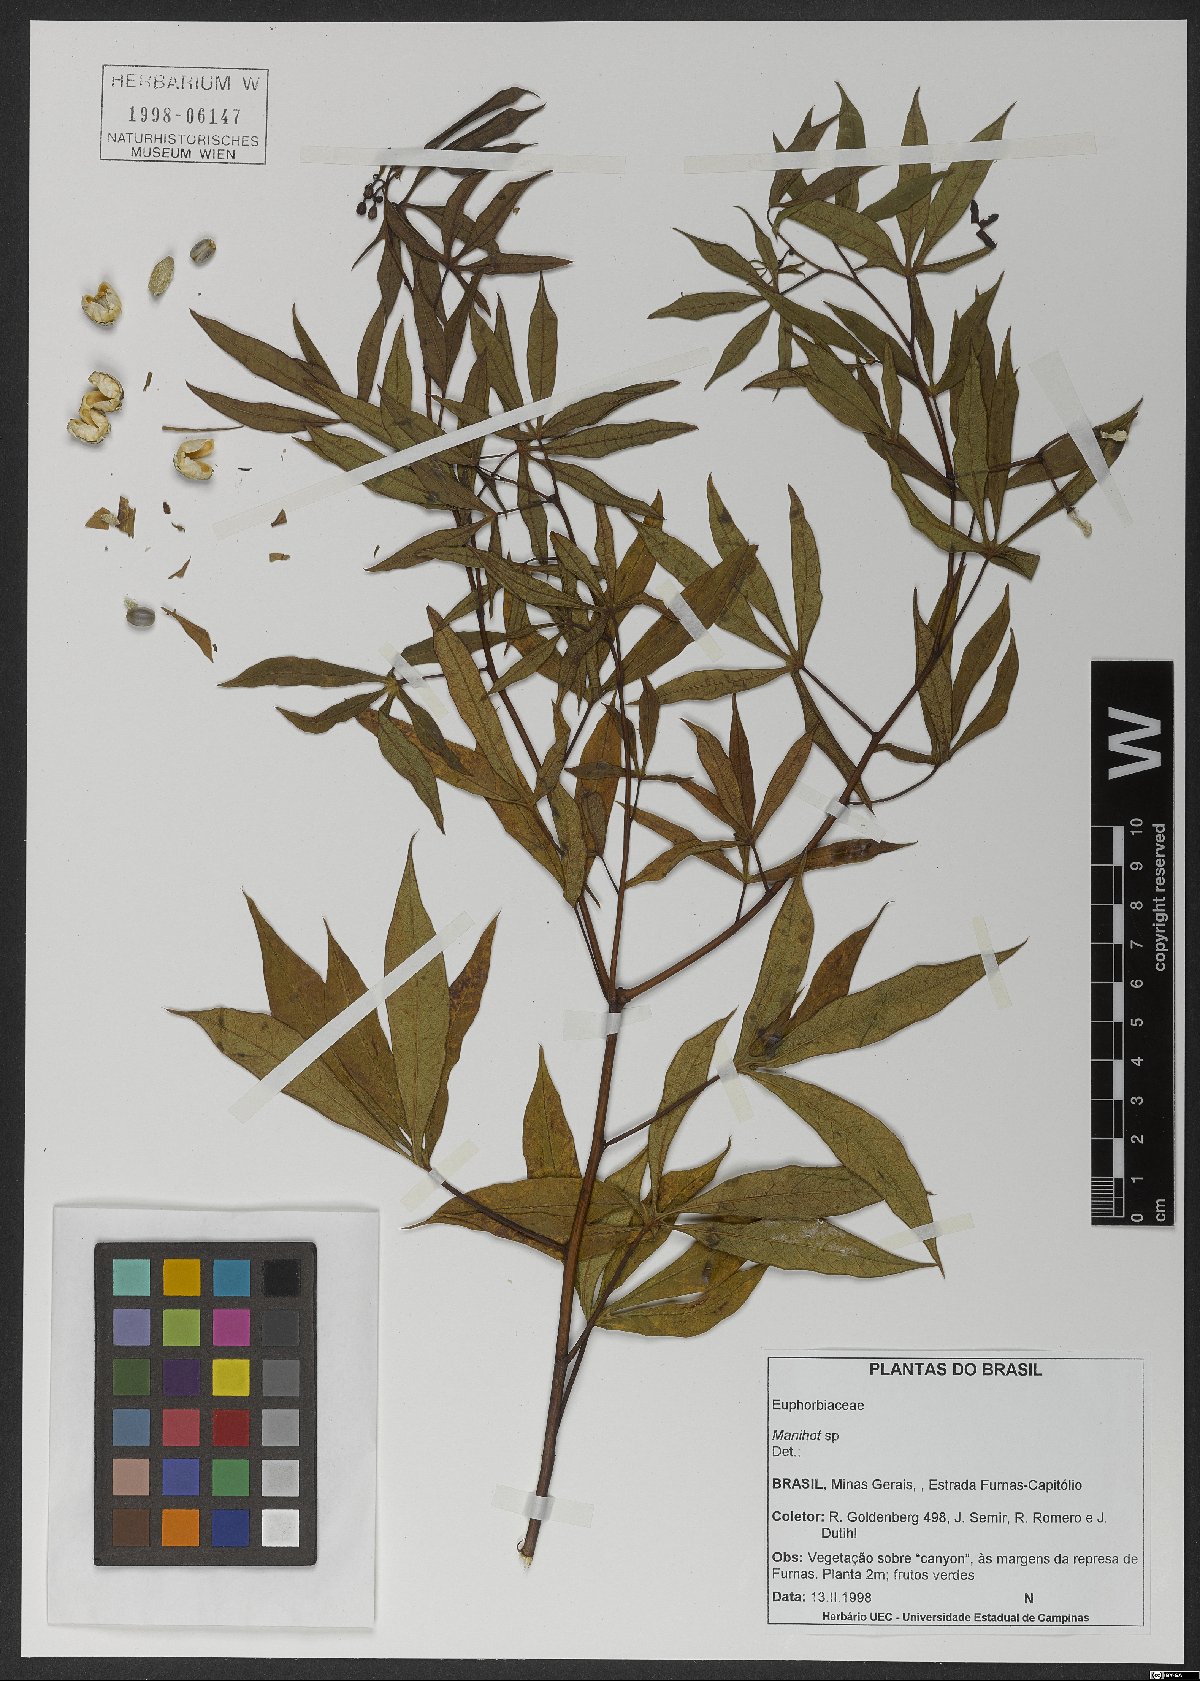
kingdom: Plantae
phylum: Tracheophyta
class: Magnoliopsida
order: Malpighiales
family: Euphorbiaceae
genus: Manihot
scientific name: Manihot
